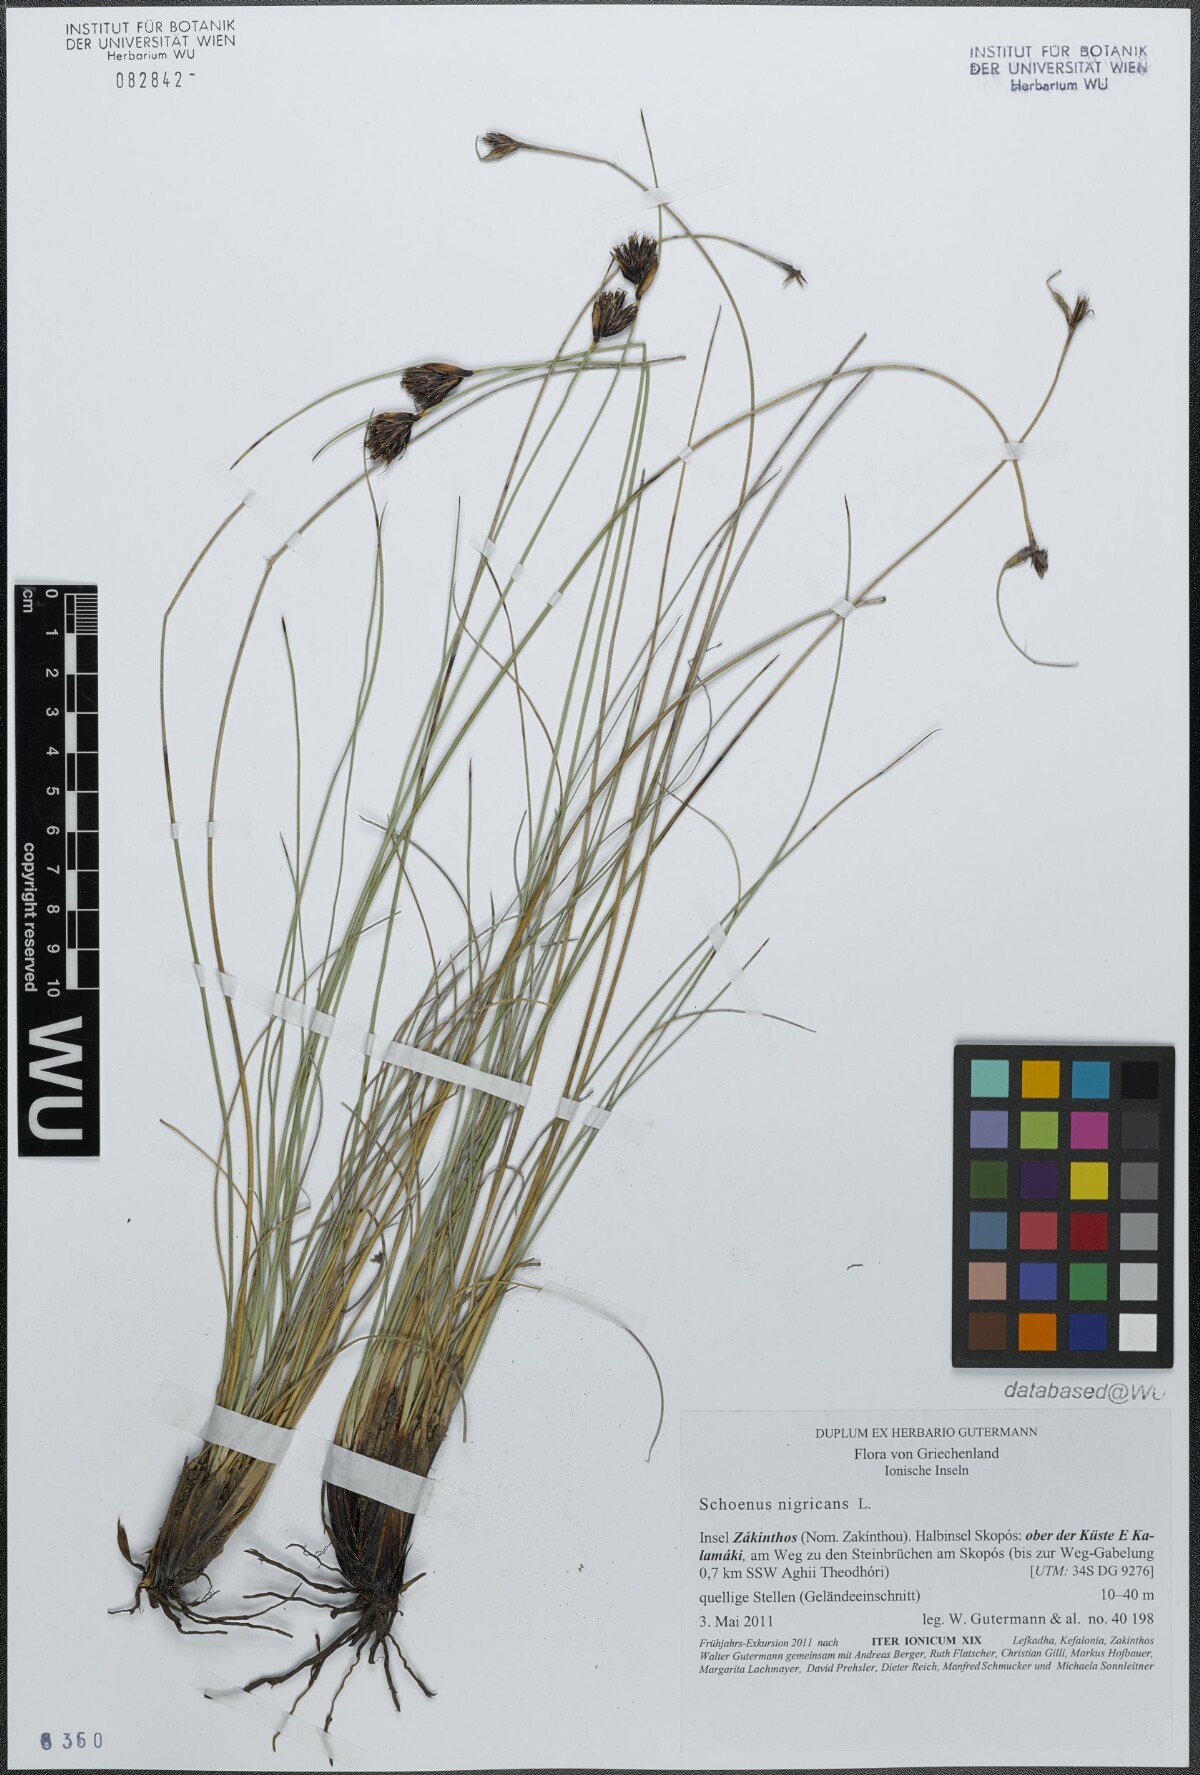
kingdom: Plantae
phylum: Tracheophyta
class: Liliopsida
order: Poales
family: Cyperaceae
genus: Schoenus
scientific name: Schoenus nigricans
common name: Black bog-rush
